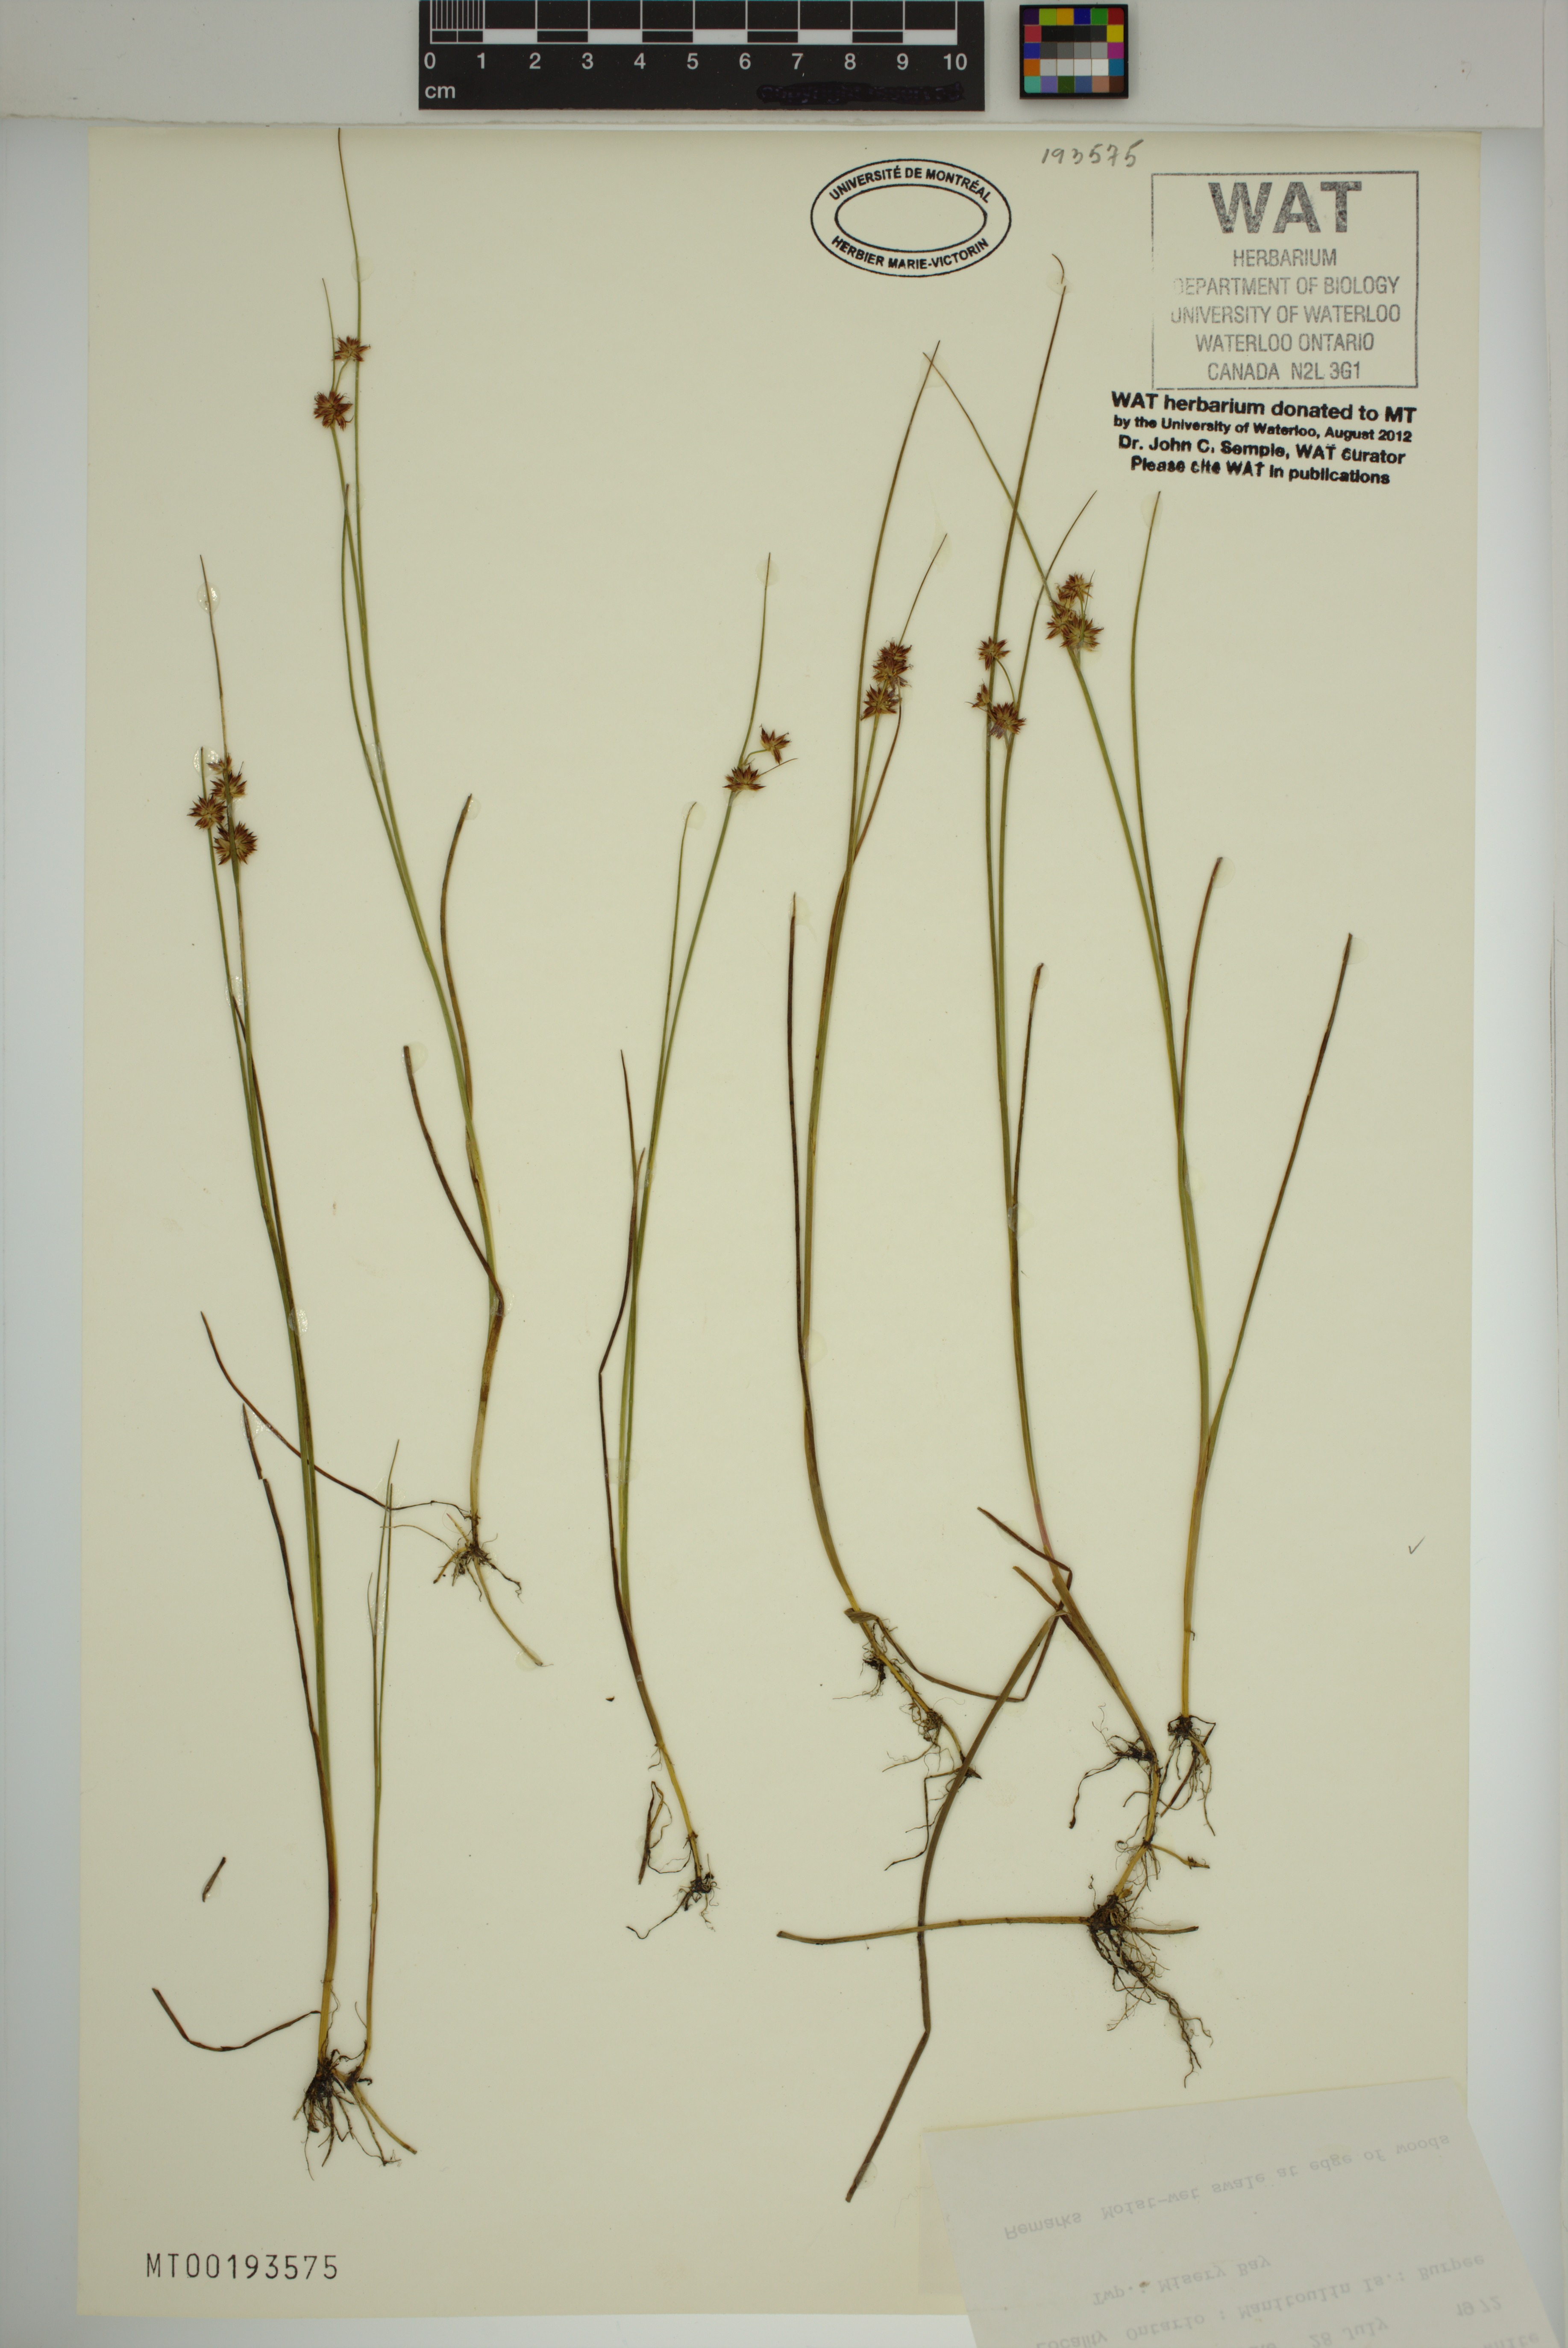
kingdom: Plantae
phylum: Tracheophyta
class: Liliopsida
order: Poales
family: Juncaceae
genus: Juncus
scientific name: Juncus nodosus
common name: Knotted rush
